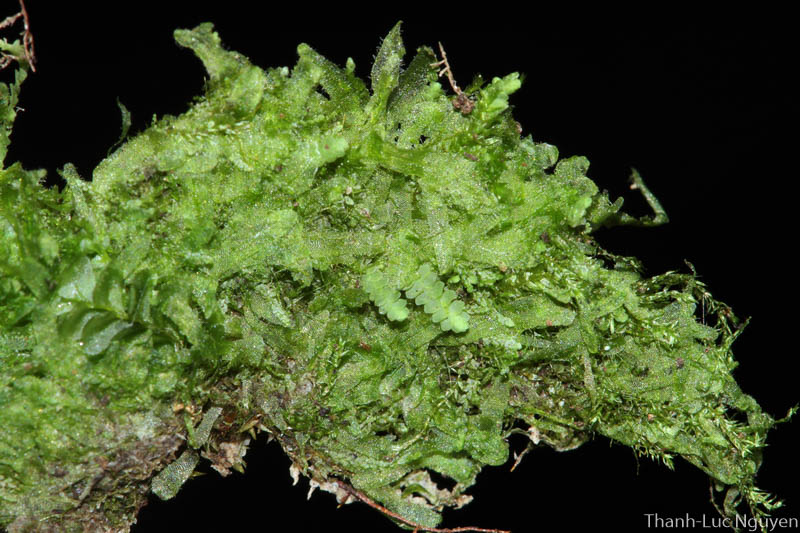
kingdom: Plantae
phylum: Marchantiophyta
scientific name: Marchantiophyta
